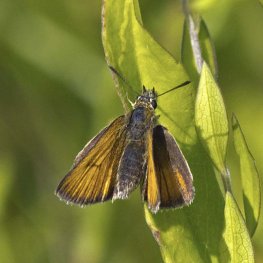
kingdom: Animalia
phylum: Arthropoda
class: Insecta
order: Lepidoptera
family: Hesperiidae
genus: Thymelicus
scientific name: Thymelicus lineola
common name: European Skipper
